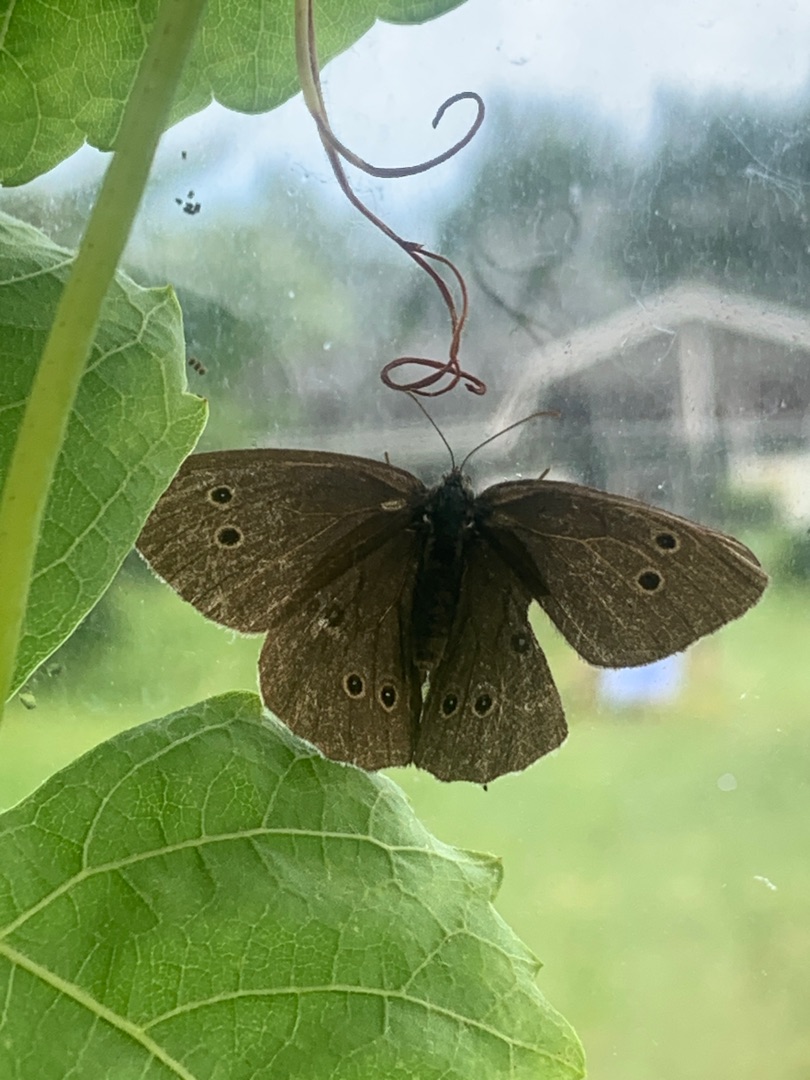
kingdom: Animalia
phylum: Arthropoda
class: Insecta
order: Lepidoptera
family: Nymphalidae
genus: Aphantopus
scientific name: Aphantopus hyperantus
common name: Engrandøje
